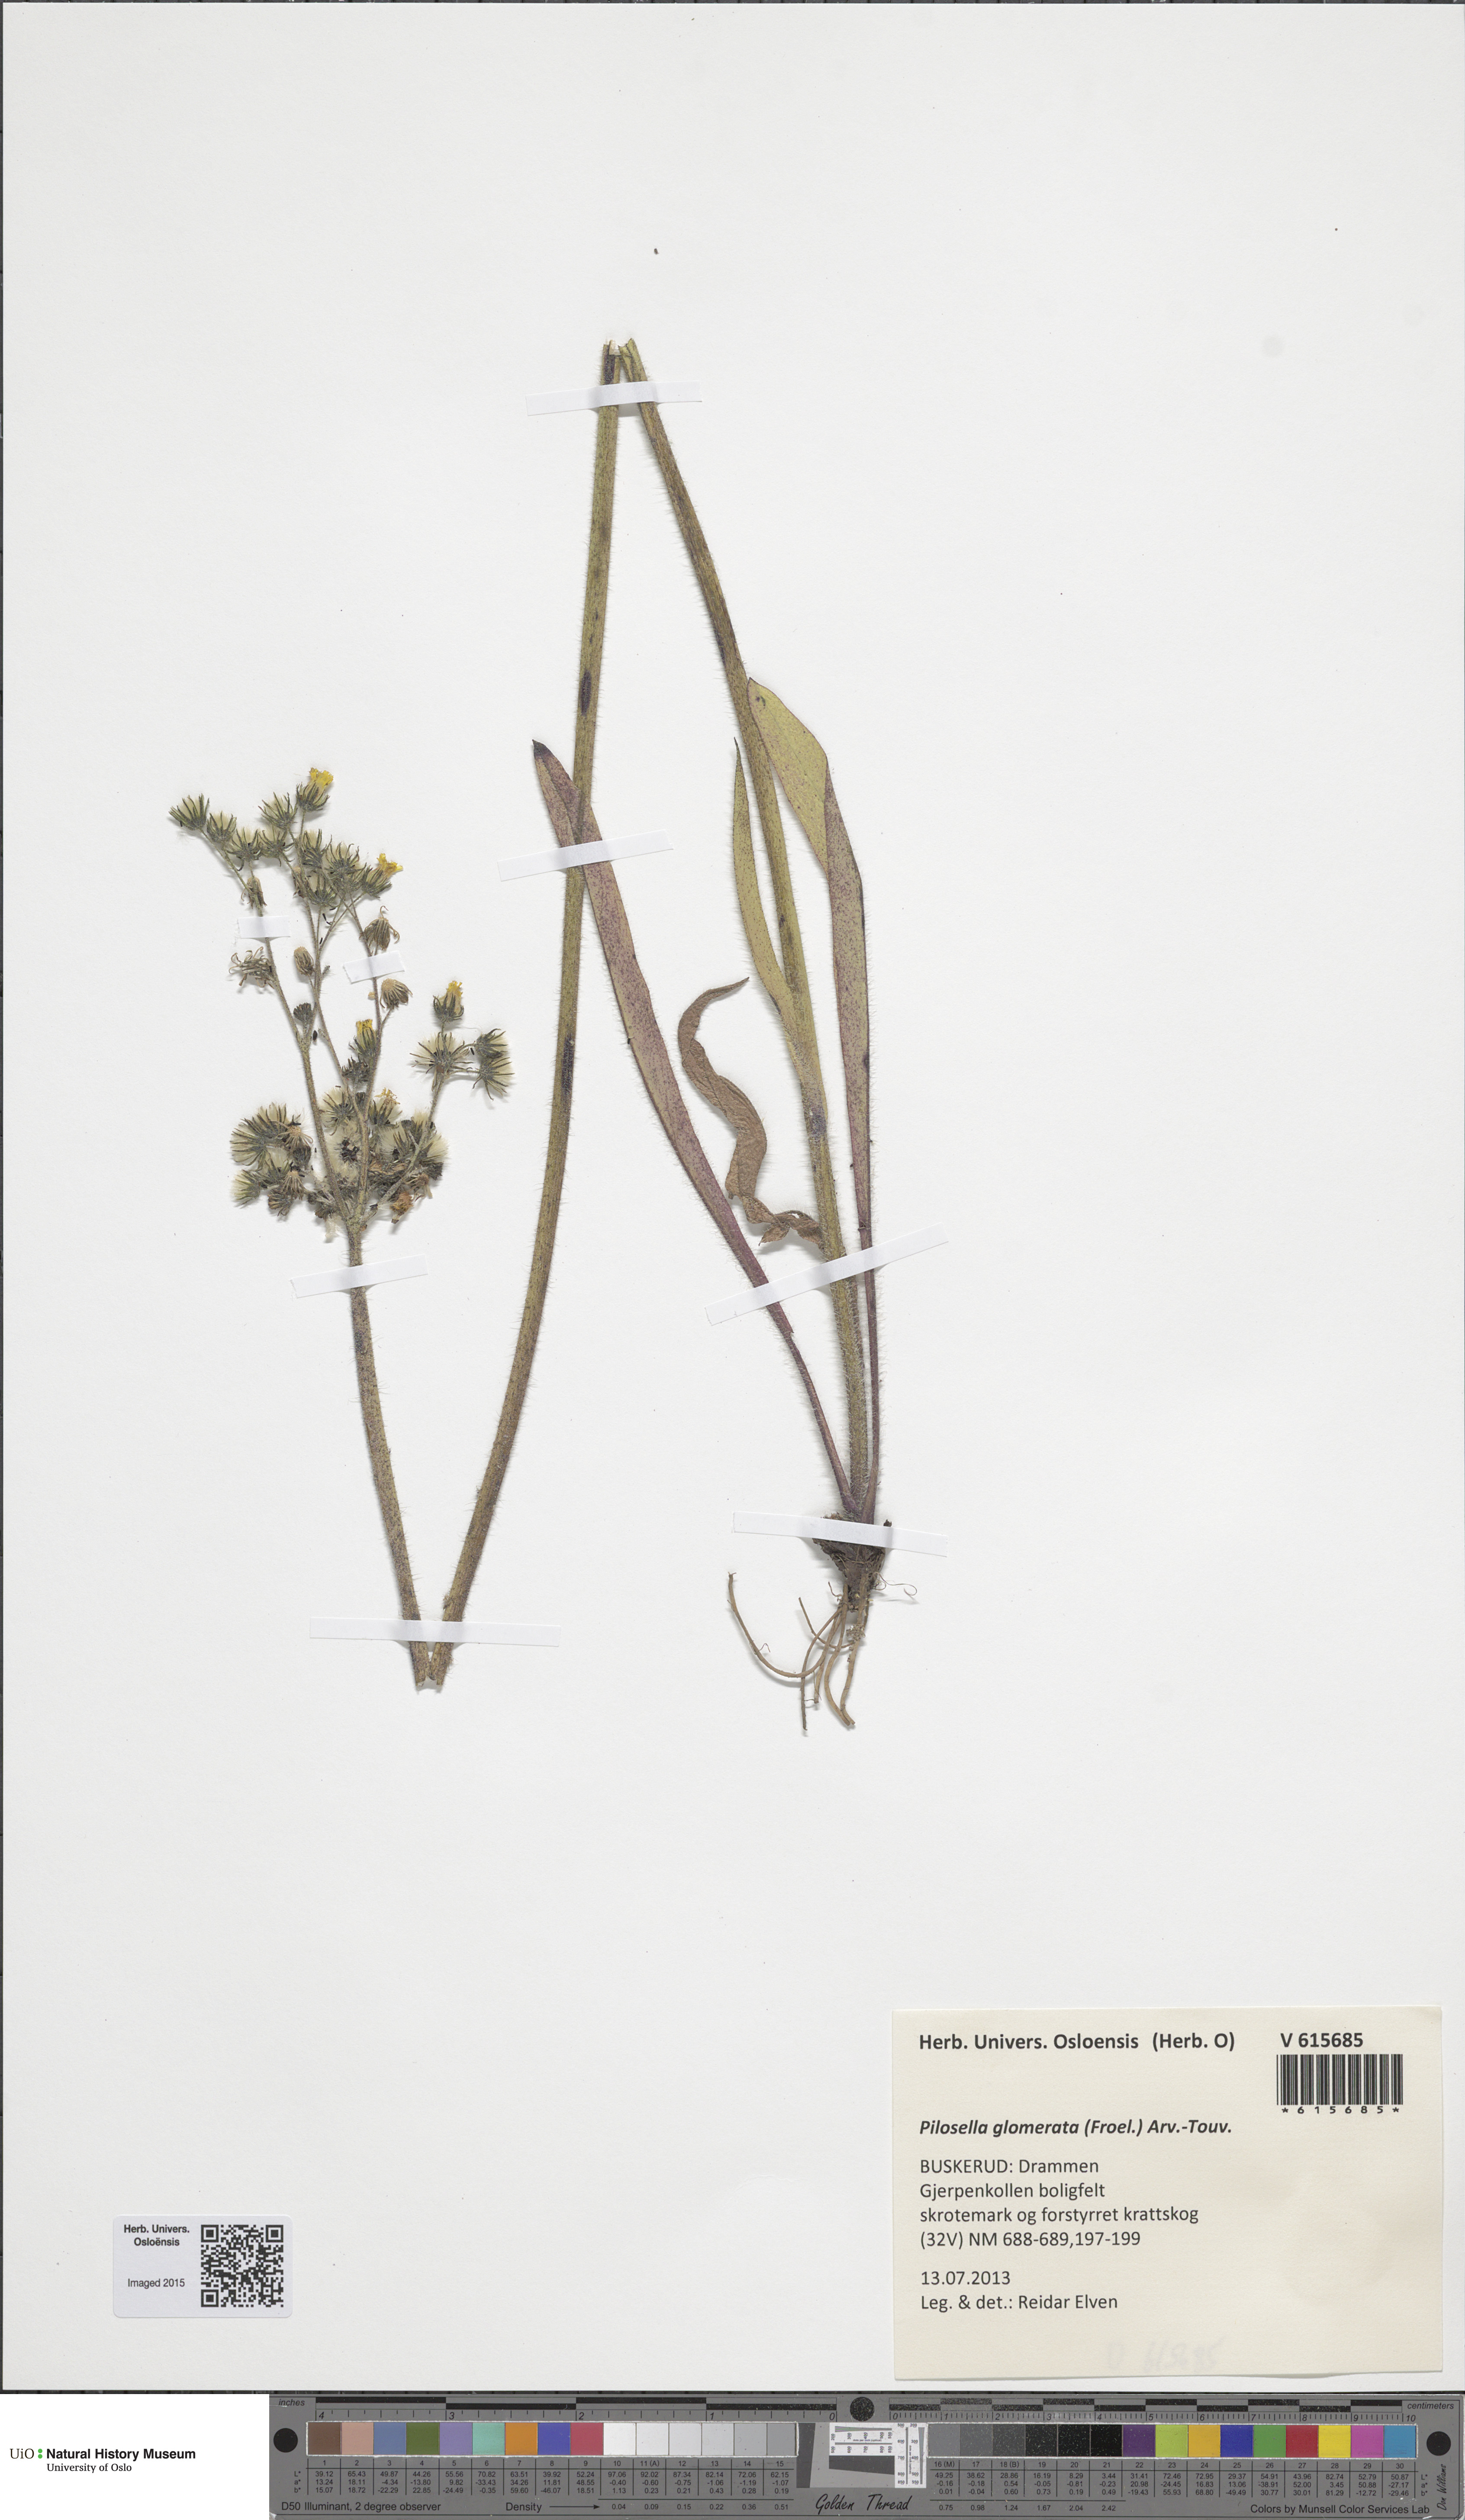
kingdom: Plantae
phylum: Tracheophyta
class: Magnoliopsida
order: Asterales
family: Asteraceae
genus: Pilosella
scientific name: Pilosella glomerata
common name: Queen devil hawkweed
